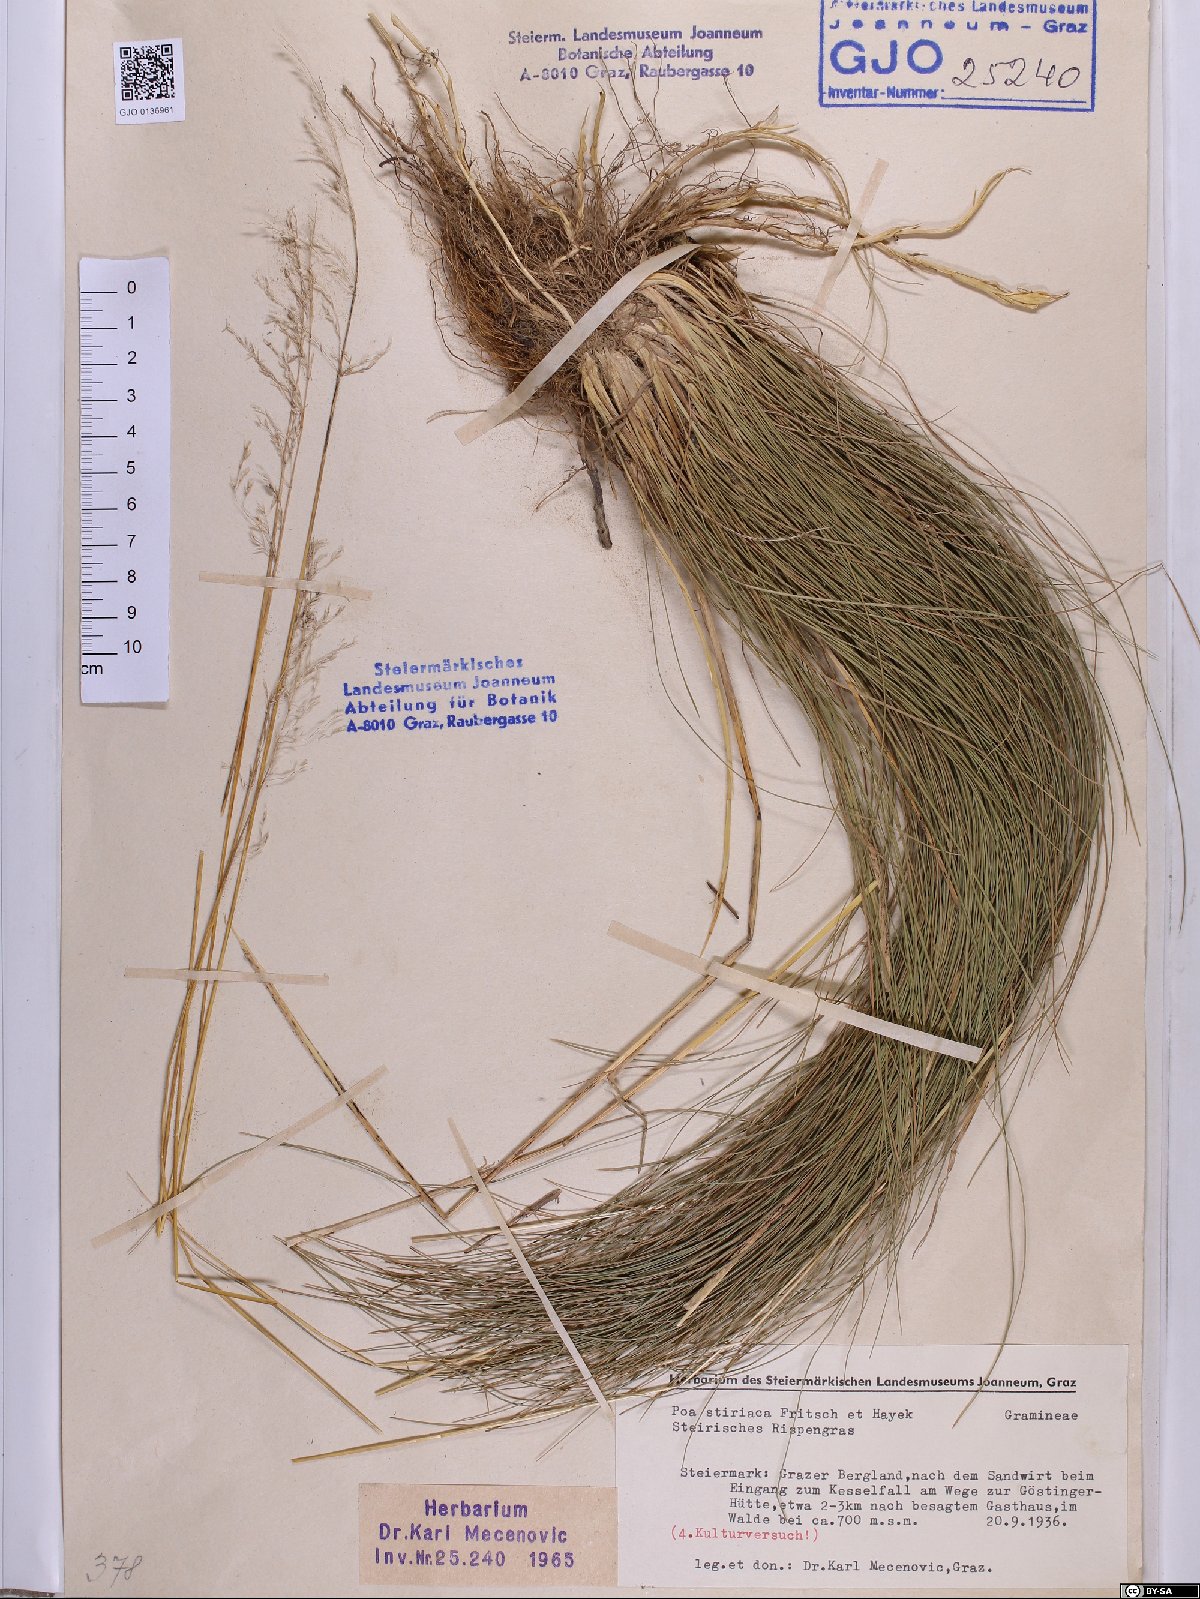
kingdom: Plantae
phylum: Tracheophyta
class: Liliopsida
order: Poales
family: Poaceae
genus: Poa
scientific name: Poa stiriaca
